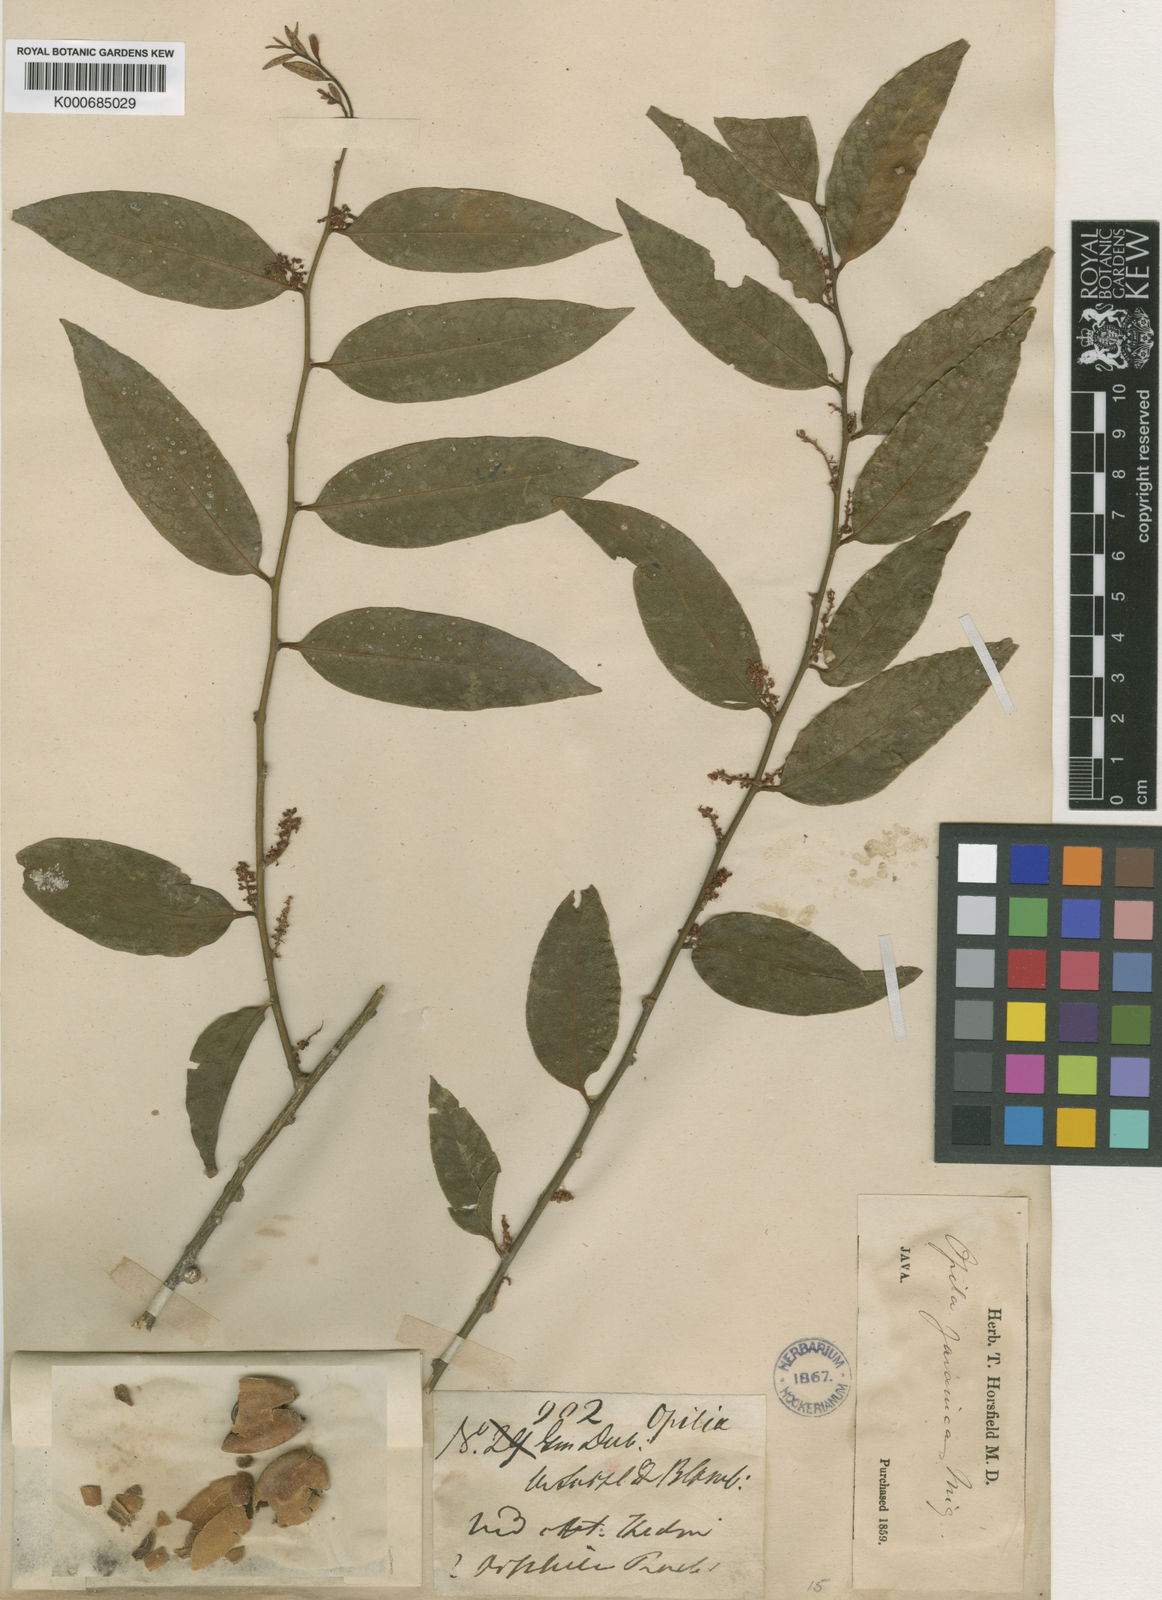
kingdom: Plantae
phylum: Tracheophyta
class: Magnoliopsida
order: Santalales
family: Opiliaceae
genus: Opilia
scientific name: Opilia amentacea
